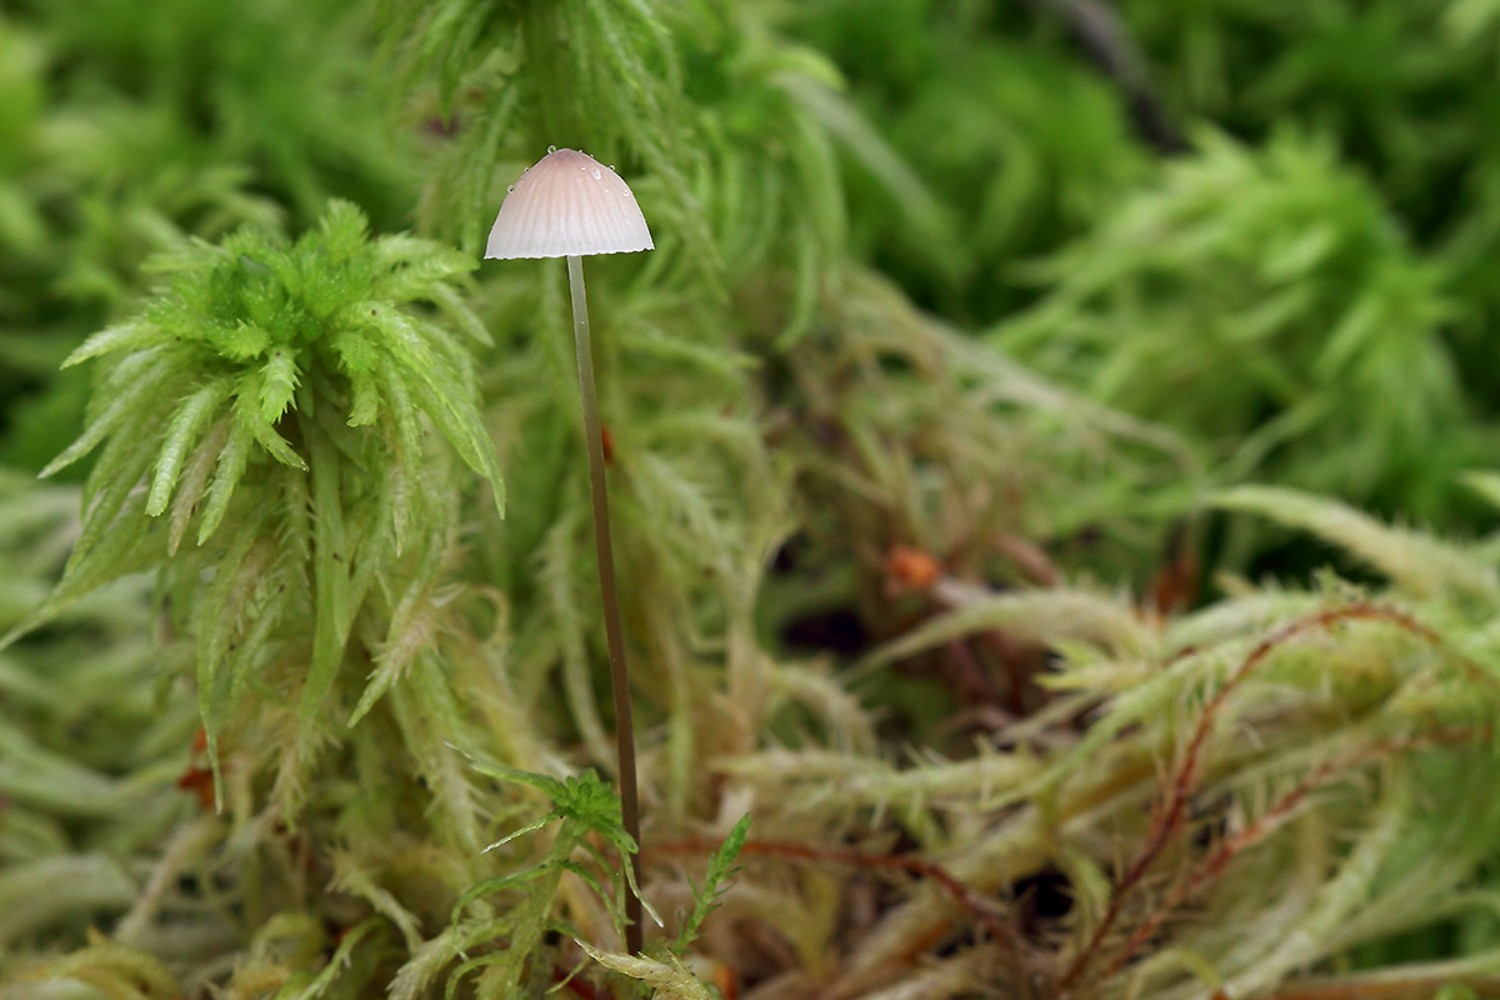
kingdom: Fungi
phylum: Basidiomycota
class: Agaricomycetes
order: Agaricales
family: Mycenaceae
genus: Mycena
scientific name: Mycena filopes
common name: jod-huesvamp
